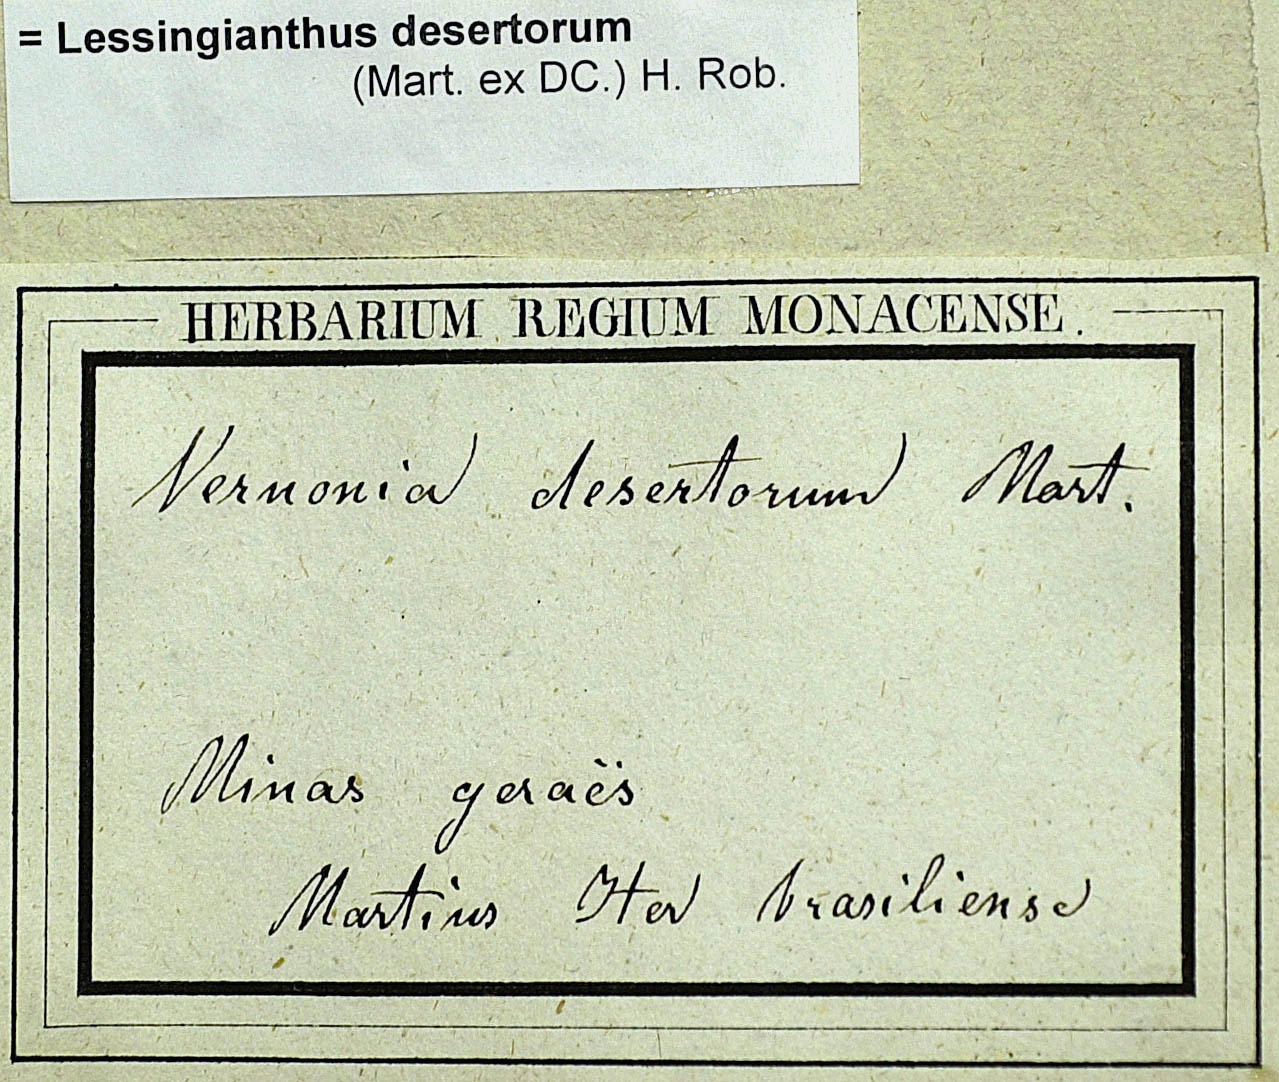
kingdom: Plantae
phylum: Tracheophyta
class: Magnoliopsida
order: Asterales
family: Asteraceae
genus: Chrysolaena
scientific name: Chrysolaena desertorum
